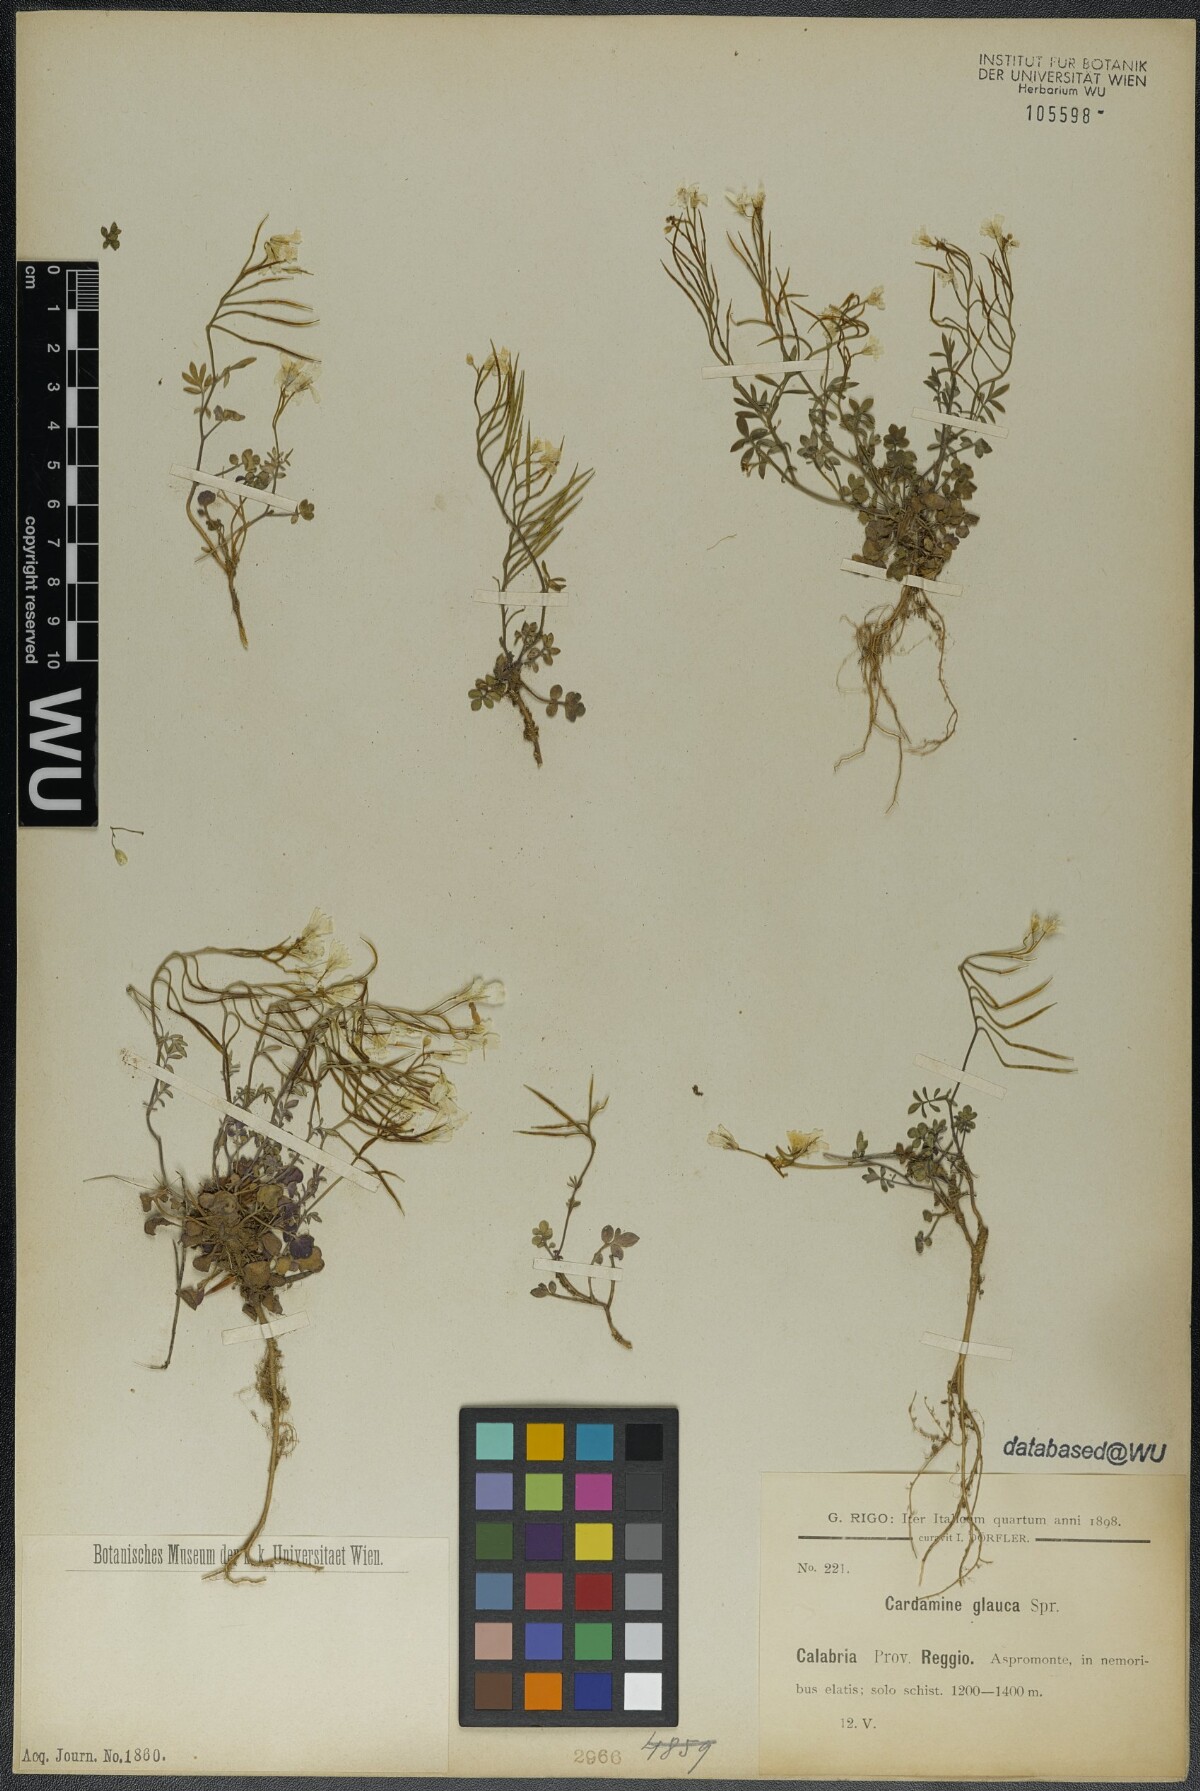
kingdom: Plantae
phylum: Tracheophyta
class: Magnoliopsida
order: Brassicales
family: Brassicaceae
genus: Cardamine
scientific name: Cardamine glauca
